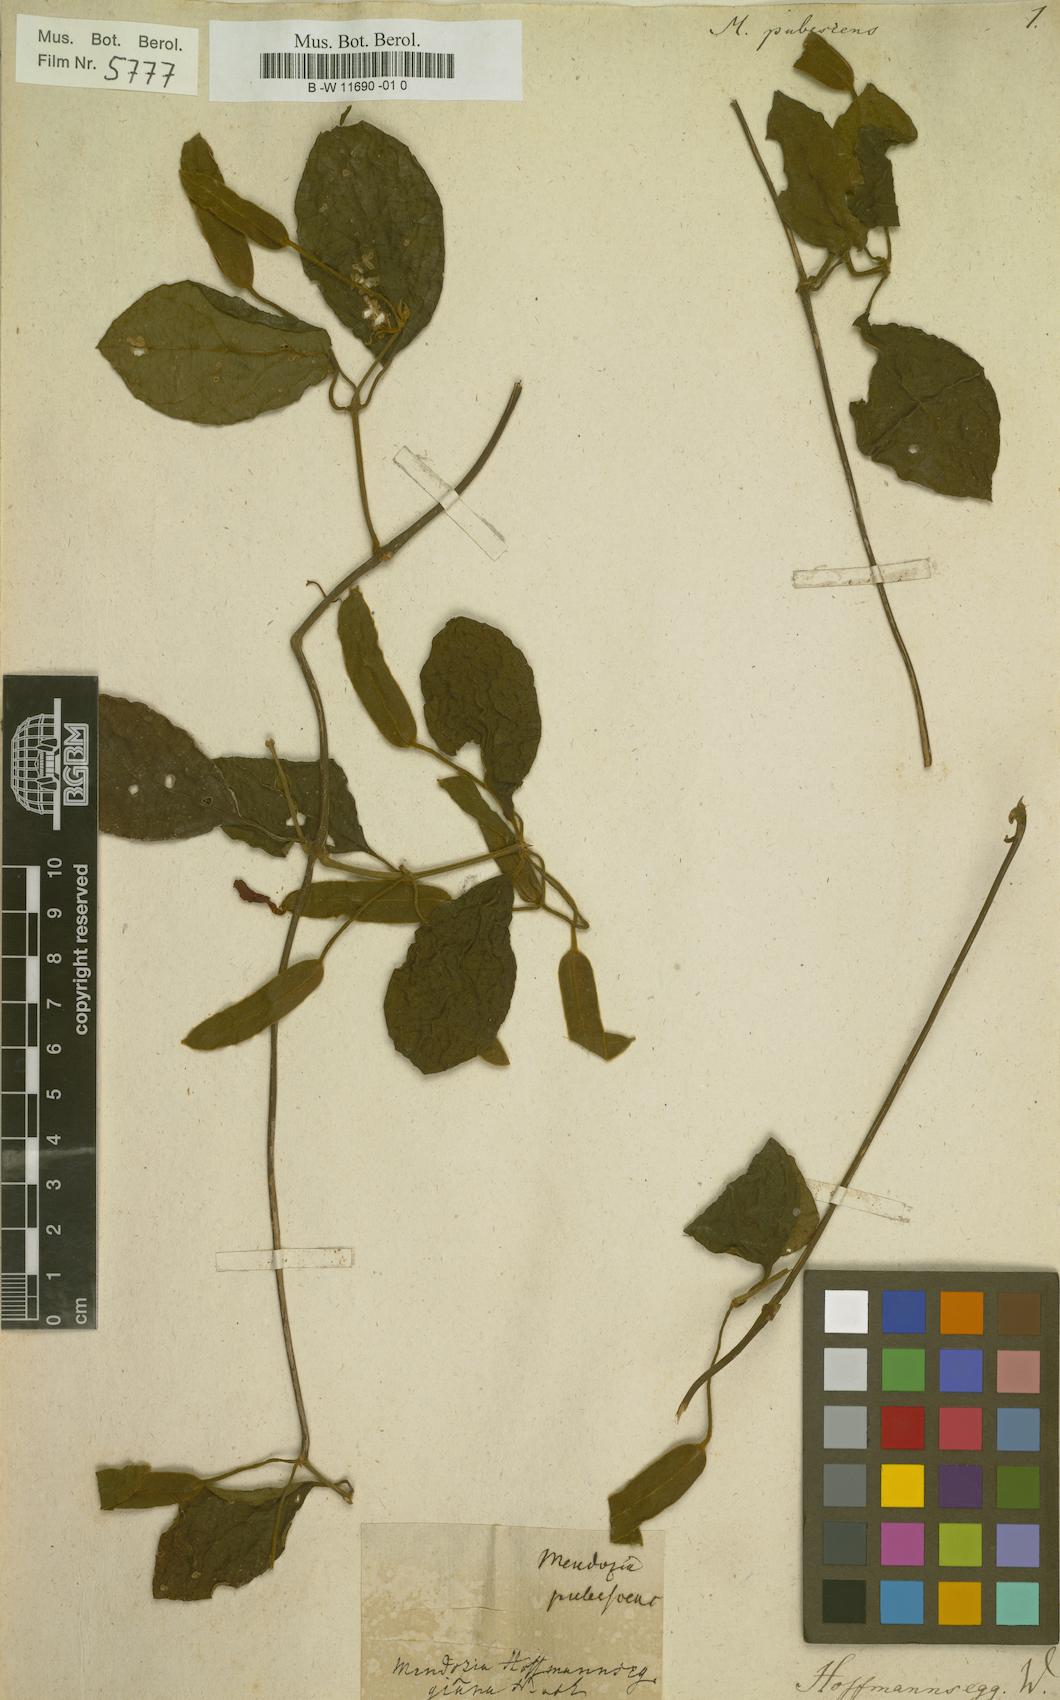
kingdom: Plantae
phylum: Tracheophyta
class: Magnoliopsida
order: Lamiales
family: Acanthaceae
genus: Mendoncia
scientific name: Mendoncia hoffmannseggiana
